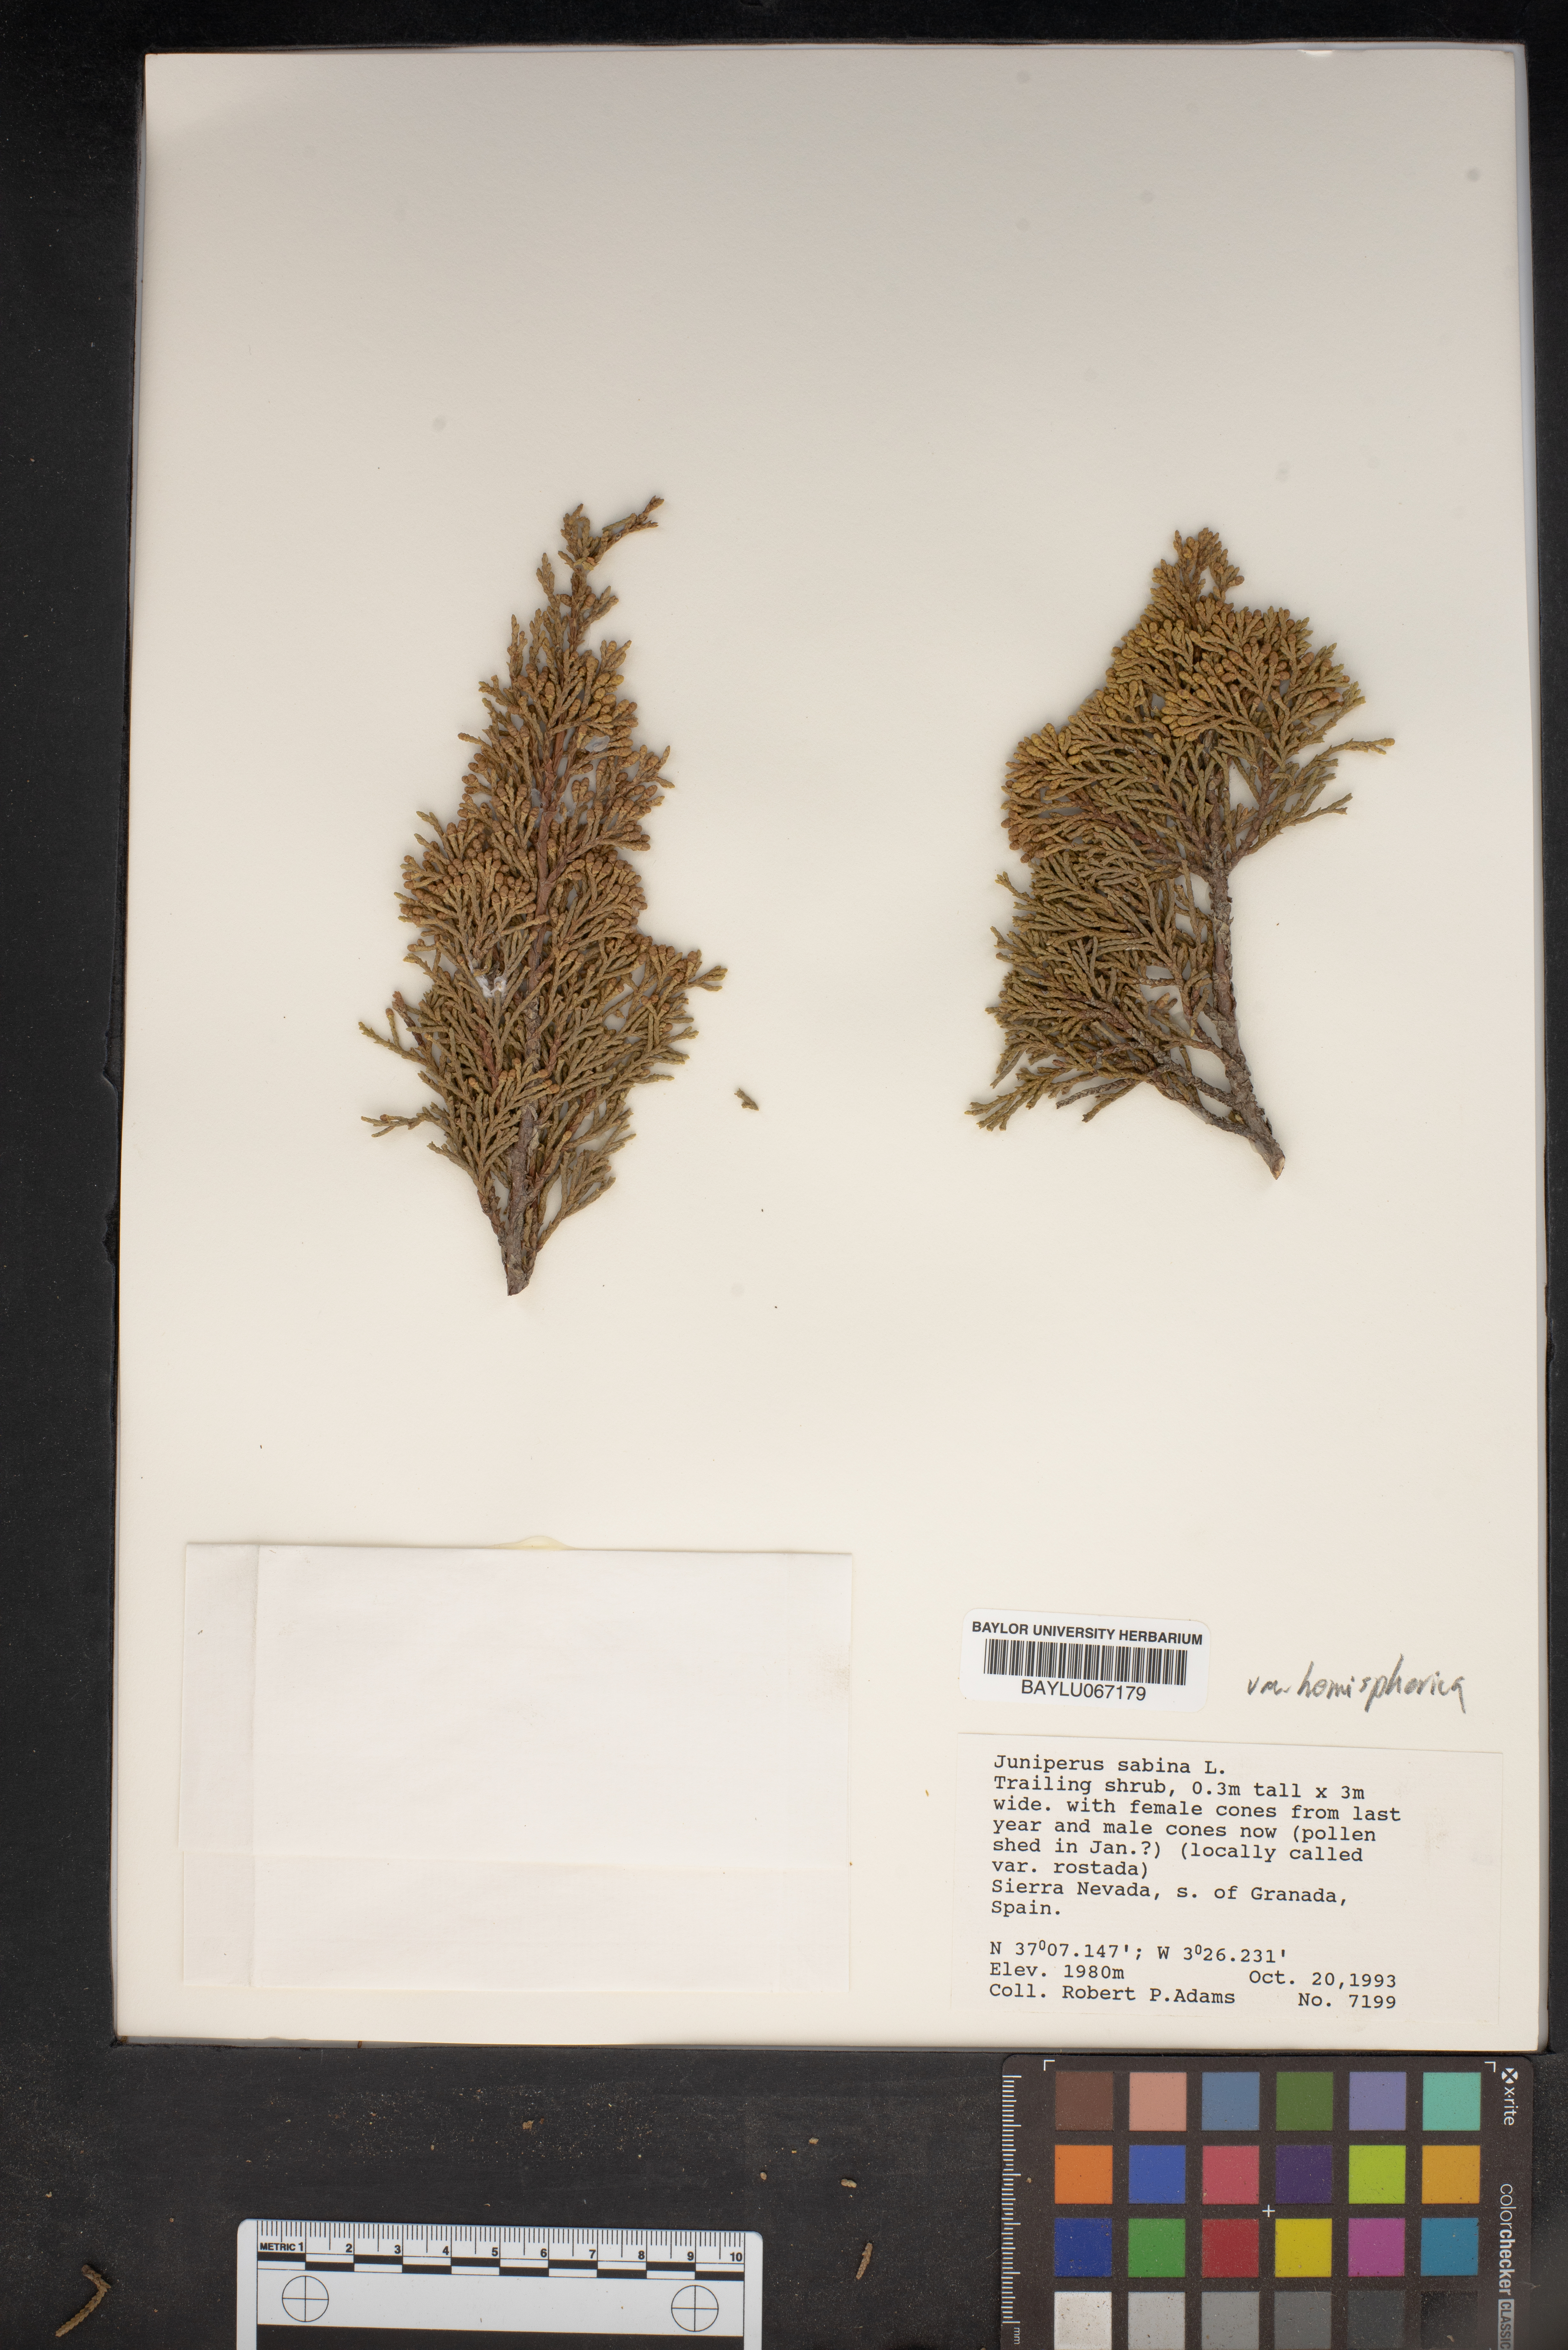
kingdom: Plantae
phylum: Tracheophyta
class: Pinopsida
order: Pinales
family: Cupressaceae
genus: Juniperus
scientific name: Juniperus sabina
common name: Savin
